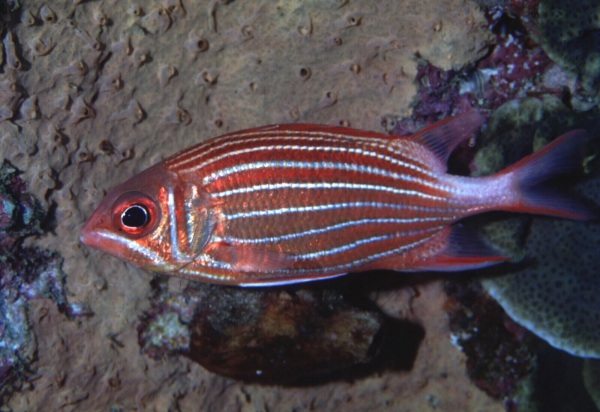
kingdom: Animalia
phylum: Chordata
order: Beryciformes
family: Holocentridae
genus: Sargocentron
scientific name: Sargocentron diadema
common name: Crown squirrelfish
